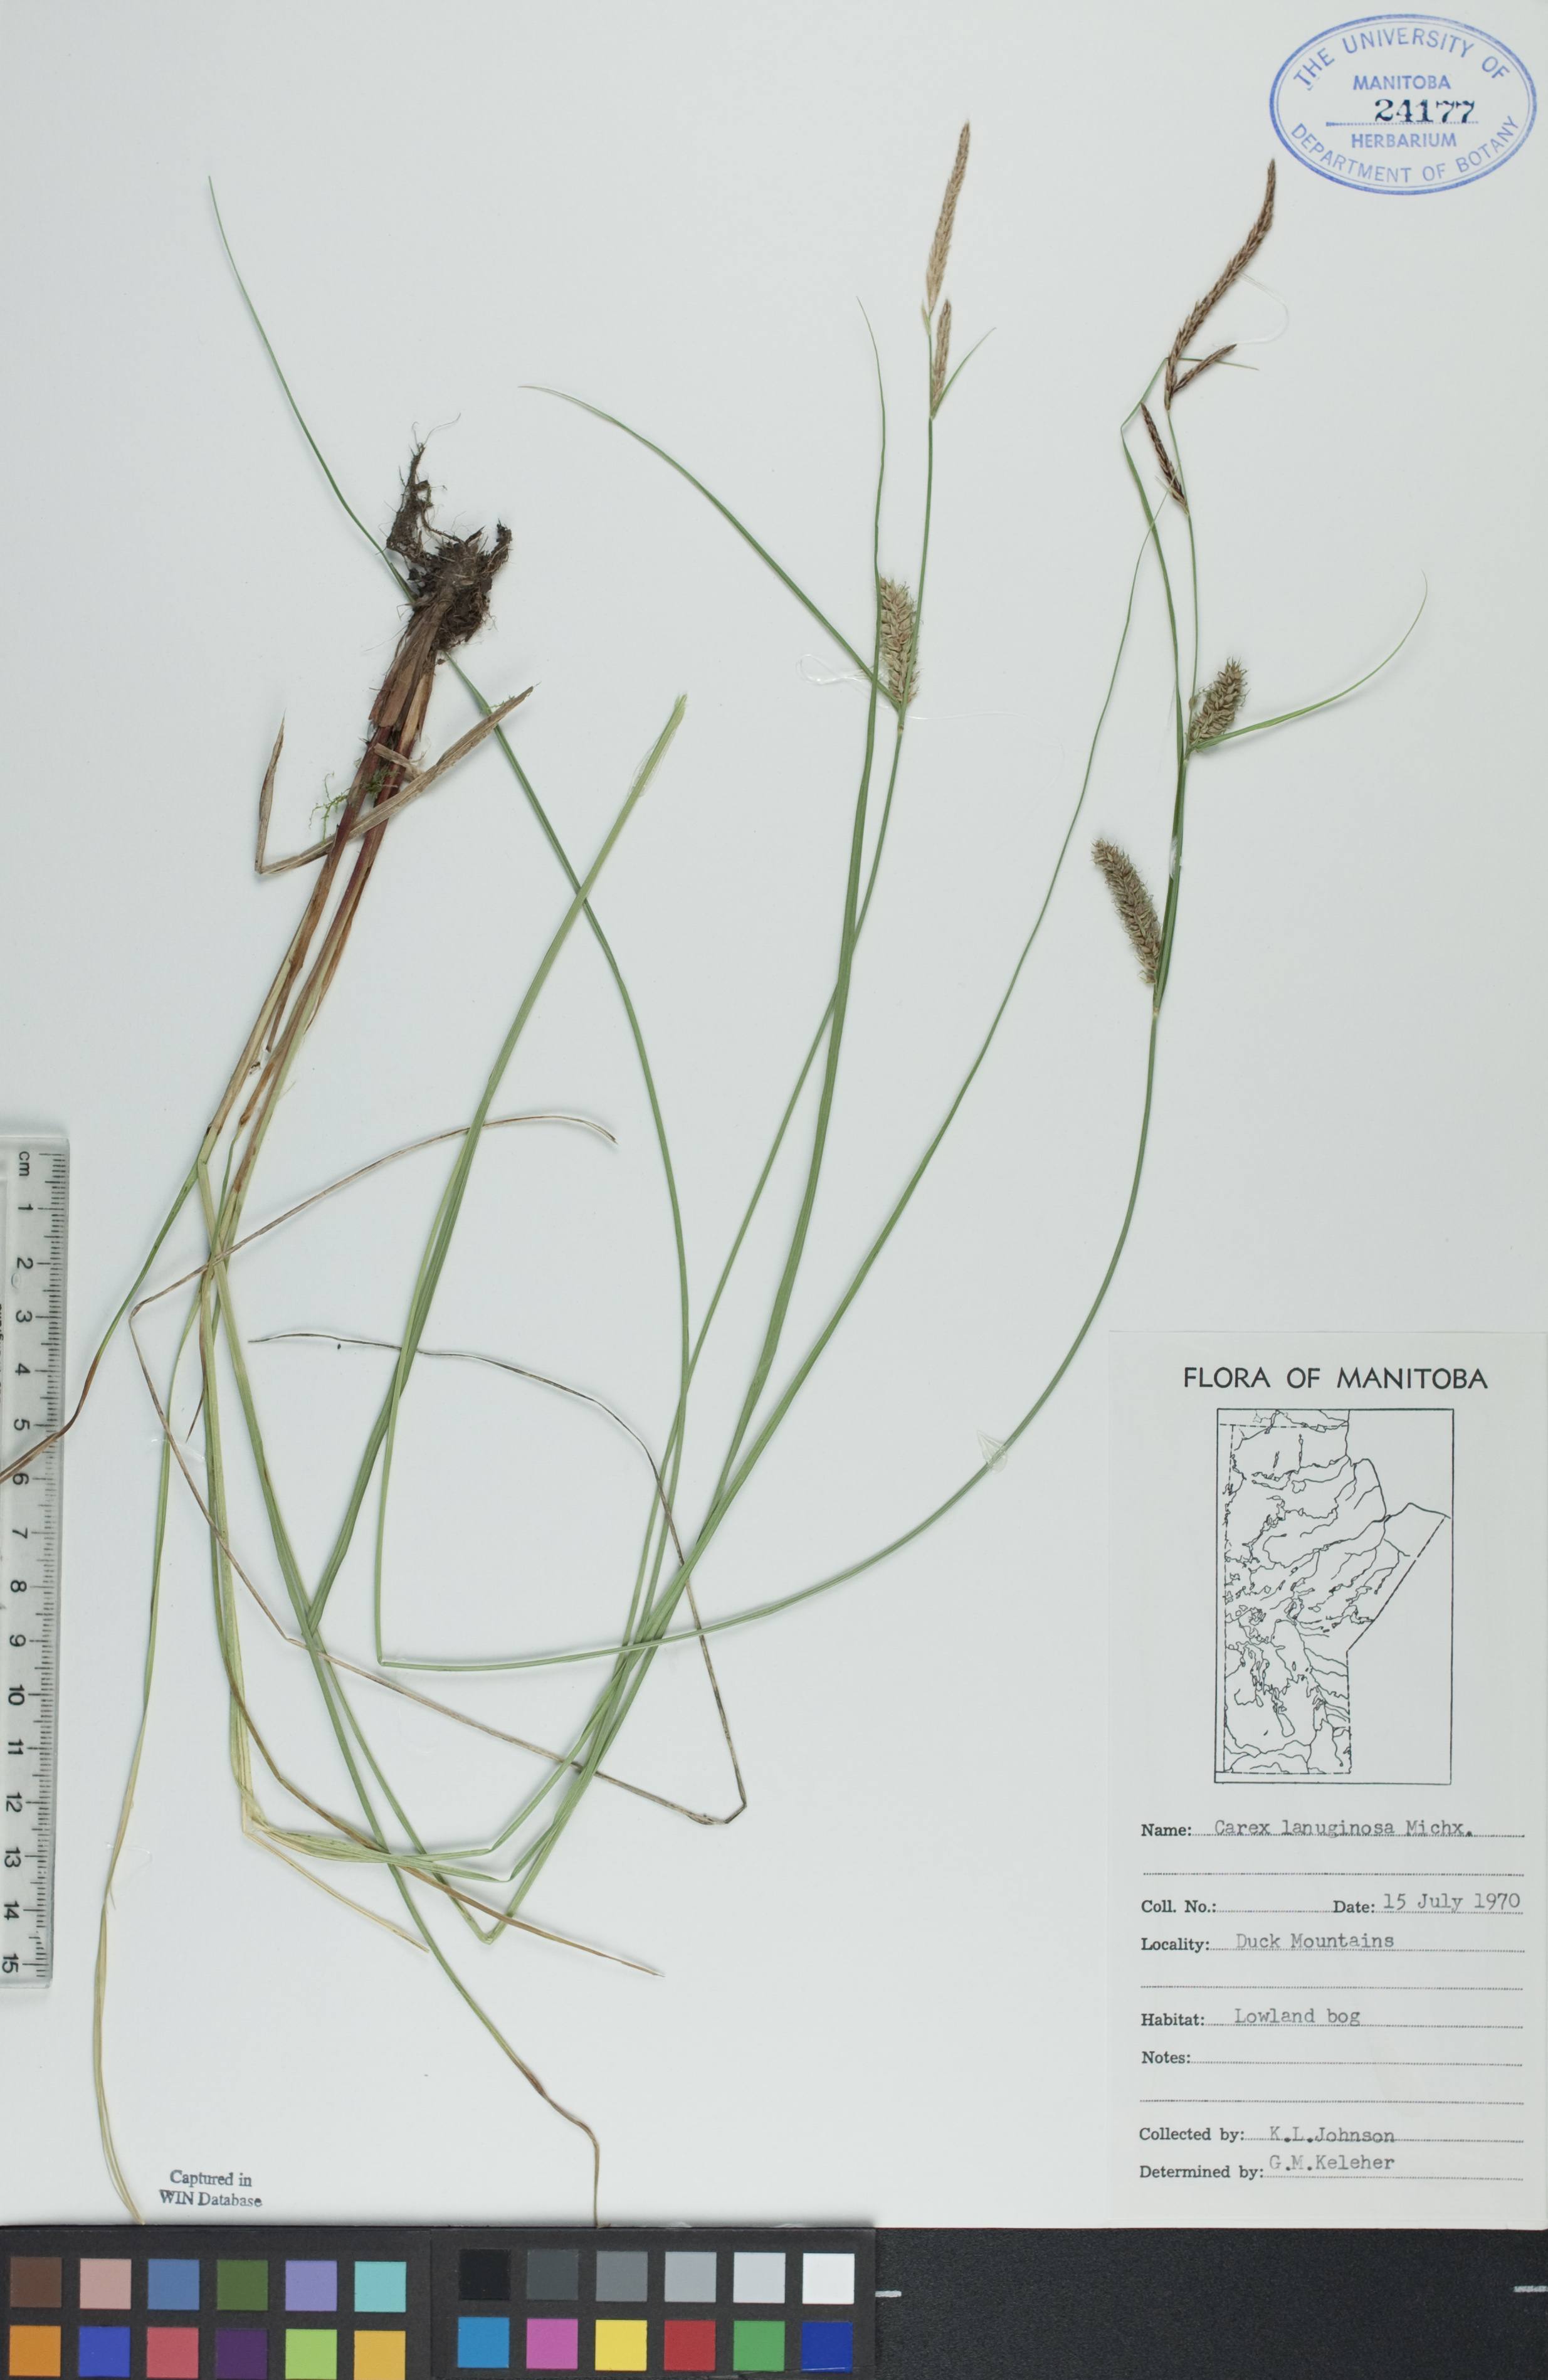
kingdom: Plantae
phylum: Tracheophyta
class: Liliopsida
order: Poales
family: Cyperaceae
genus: Carex
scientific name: Carex lasiocarpa
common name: Slender sedge
